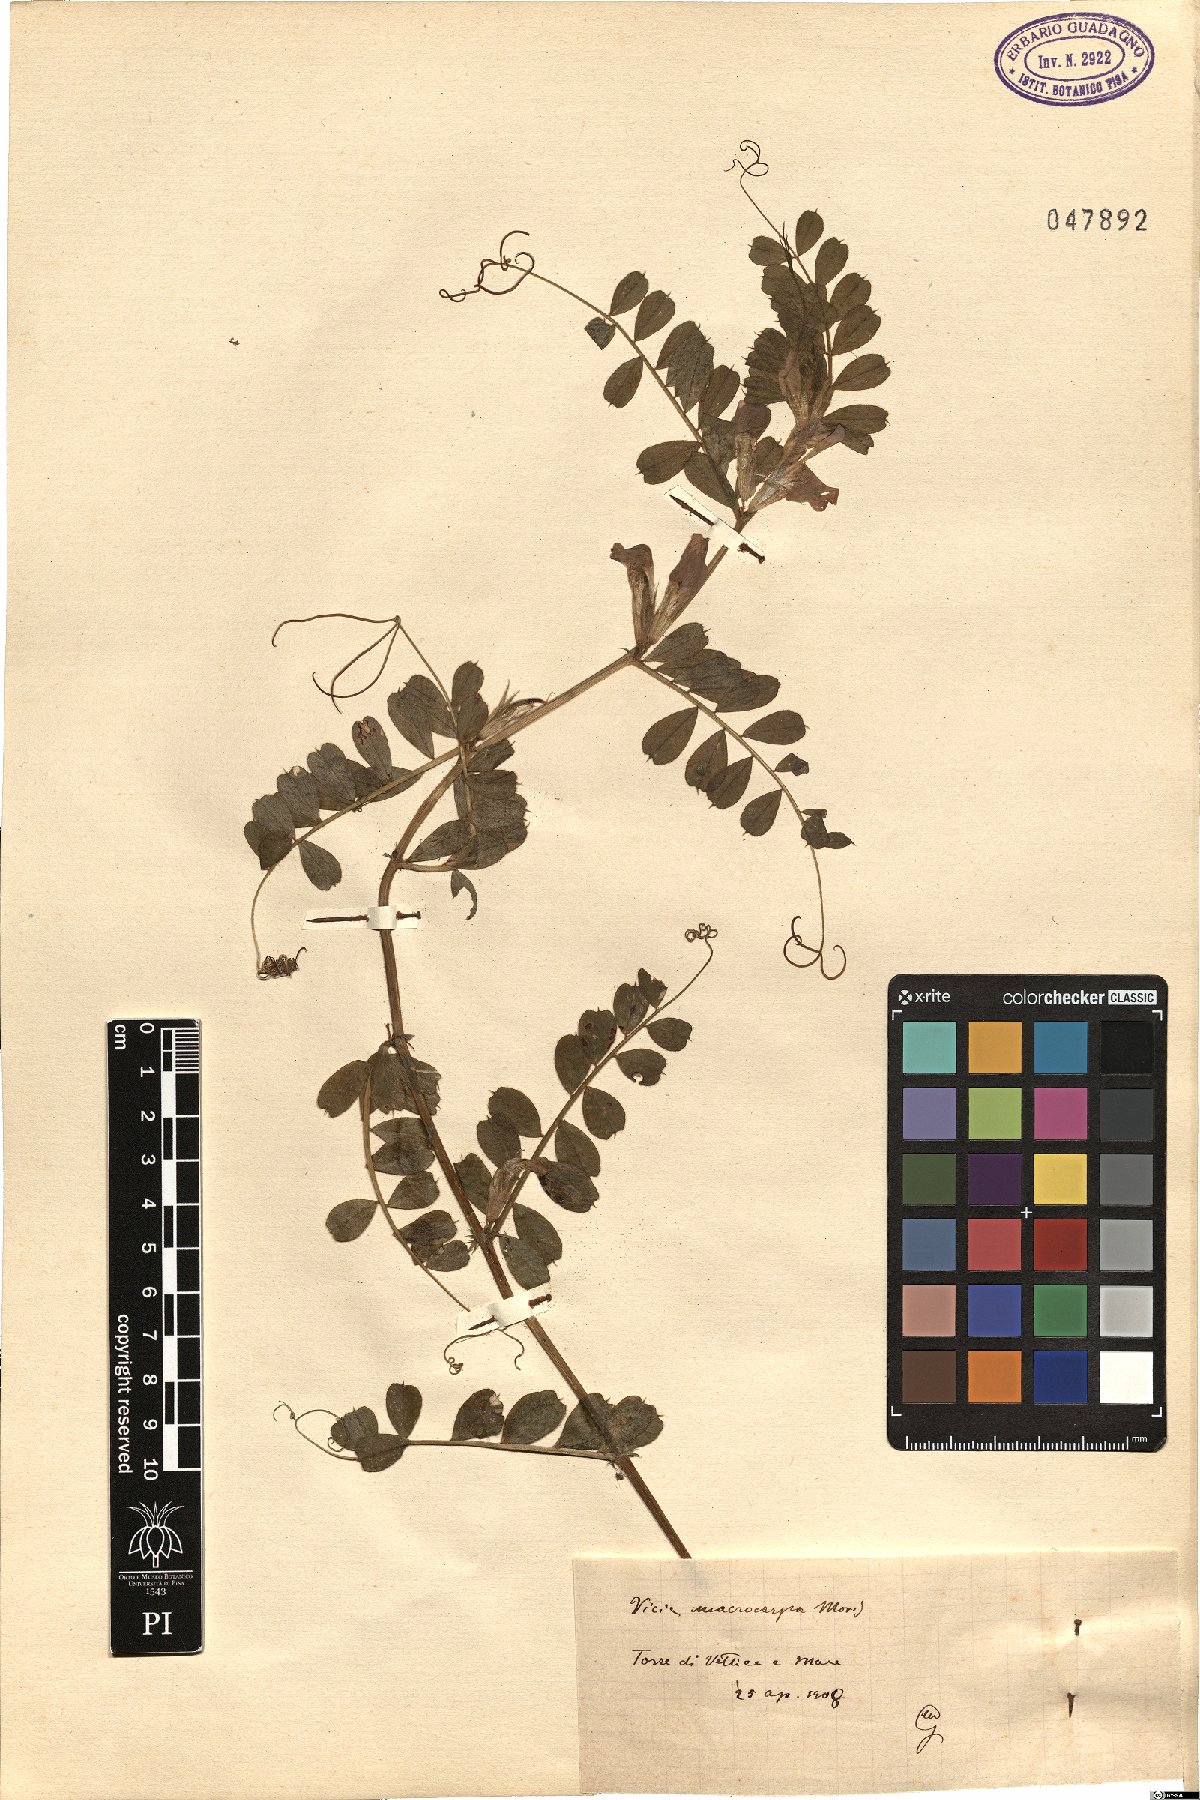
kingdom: Plantae
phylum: Tracheophyta
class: Magnoliopsida
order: Fabales
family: Fabaceae
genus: Vicia
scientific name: Vicia sativa
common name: Garden vetch
